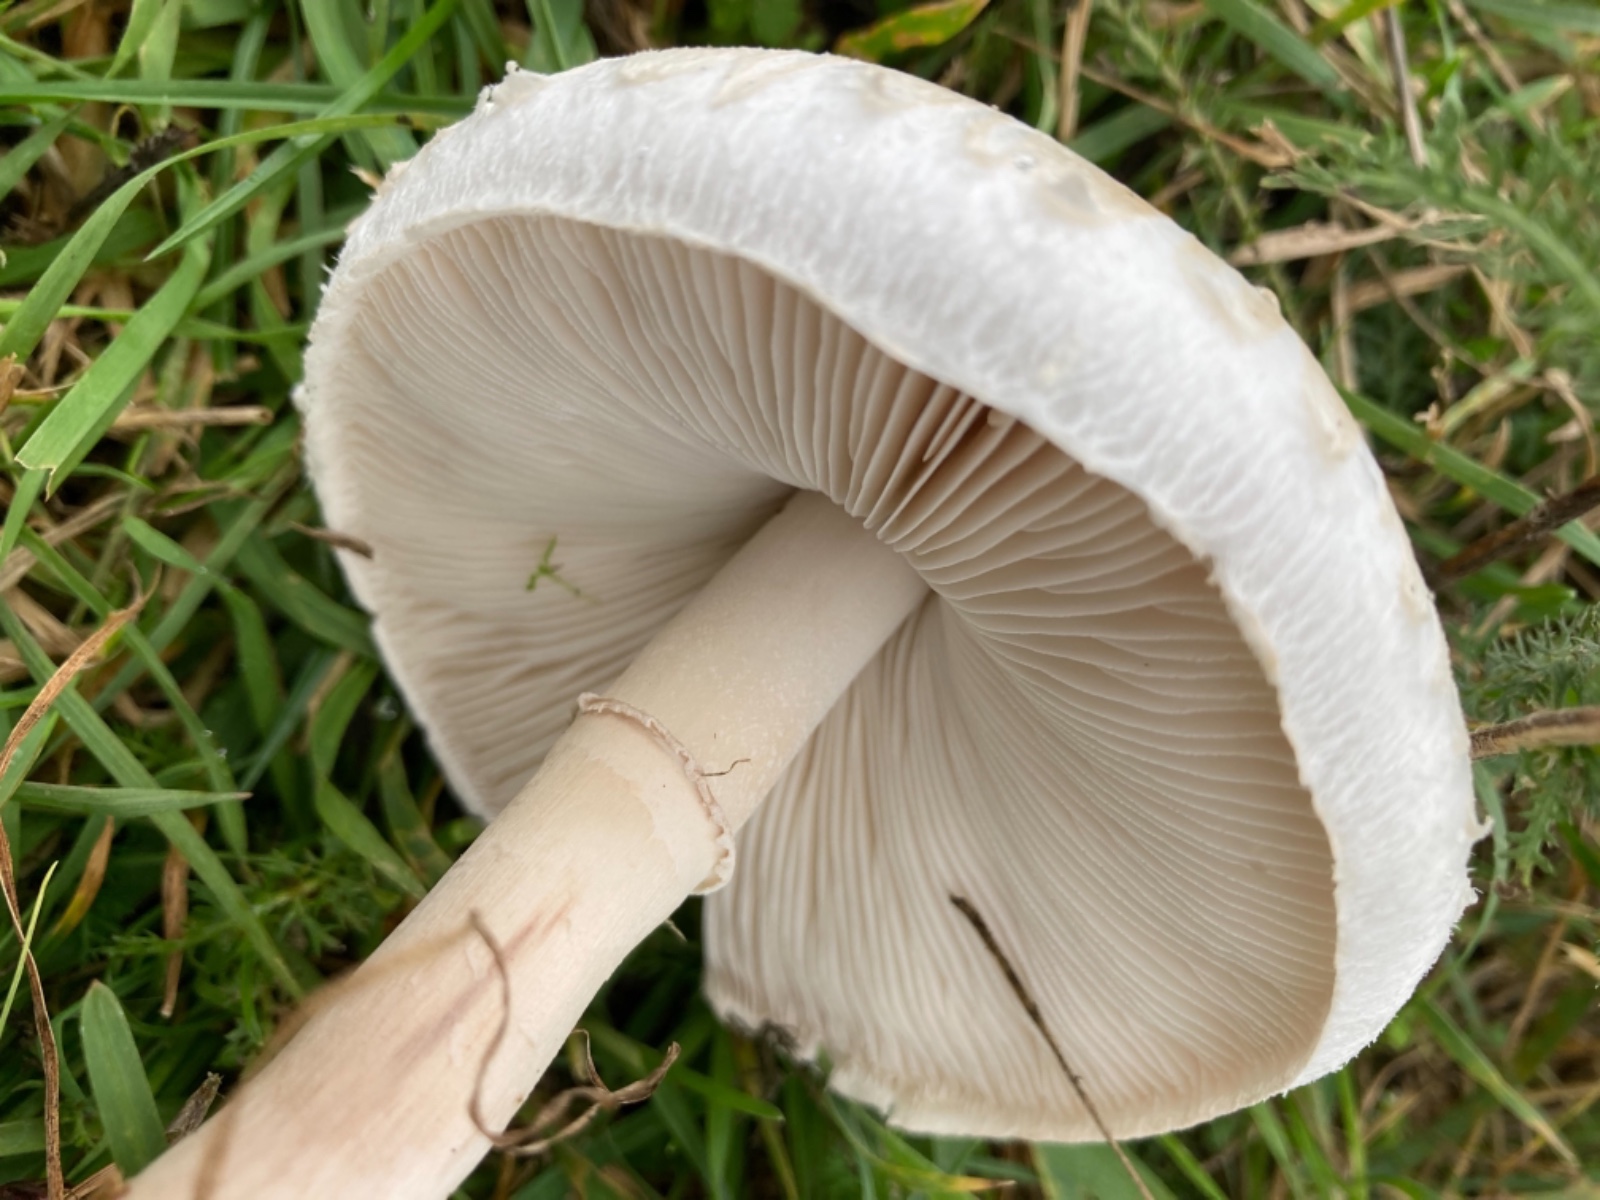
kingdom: Fungi
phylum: Basidiomycota
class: Agaricomycetes
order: Agaricales
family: Agaricaceae
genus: Macrolepiota
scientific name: Macrolepiota excoriata
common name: mark-kæmpeparasolhat
